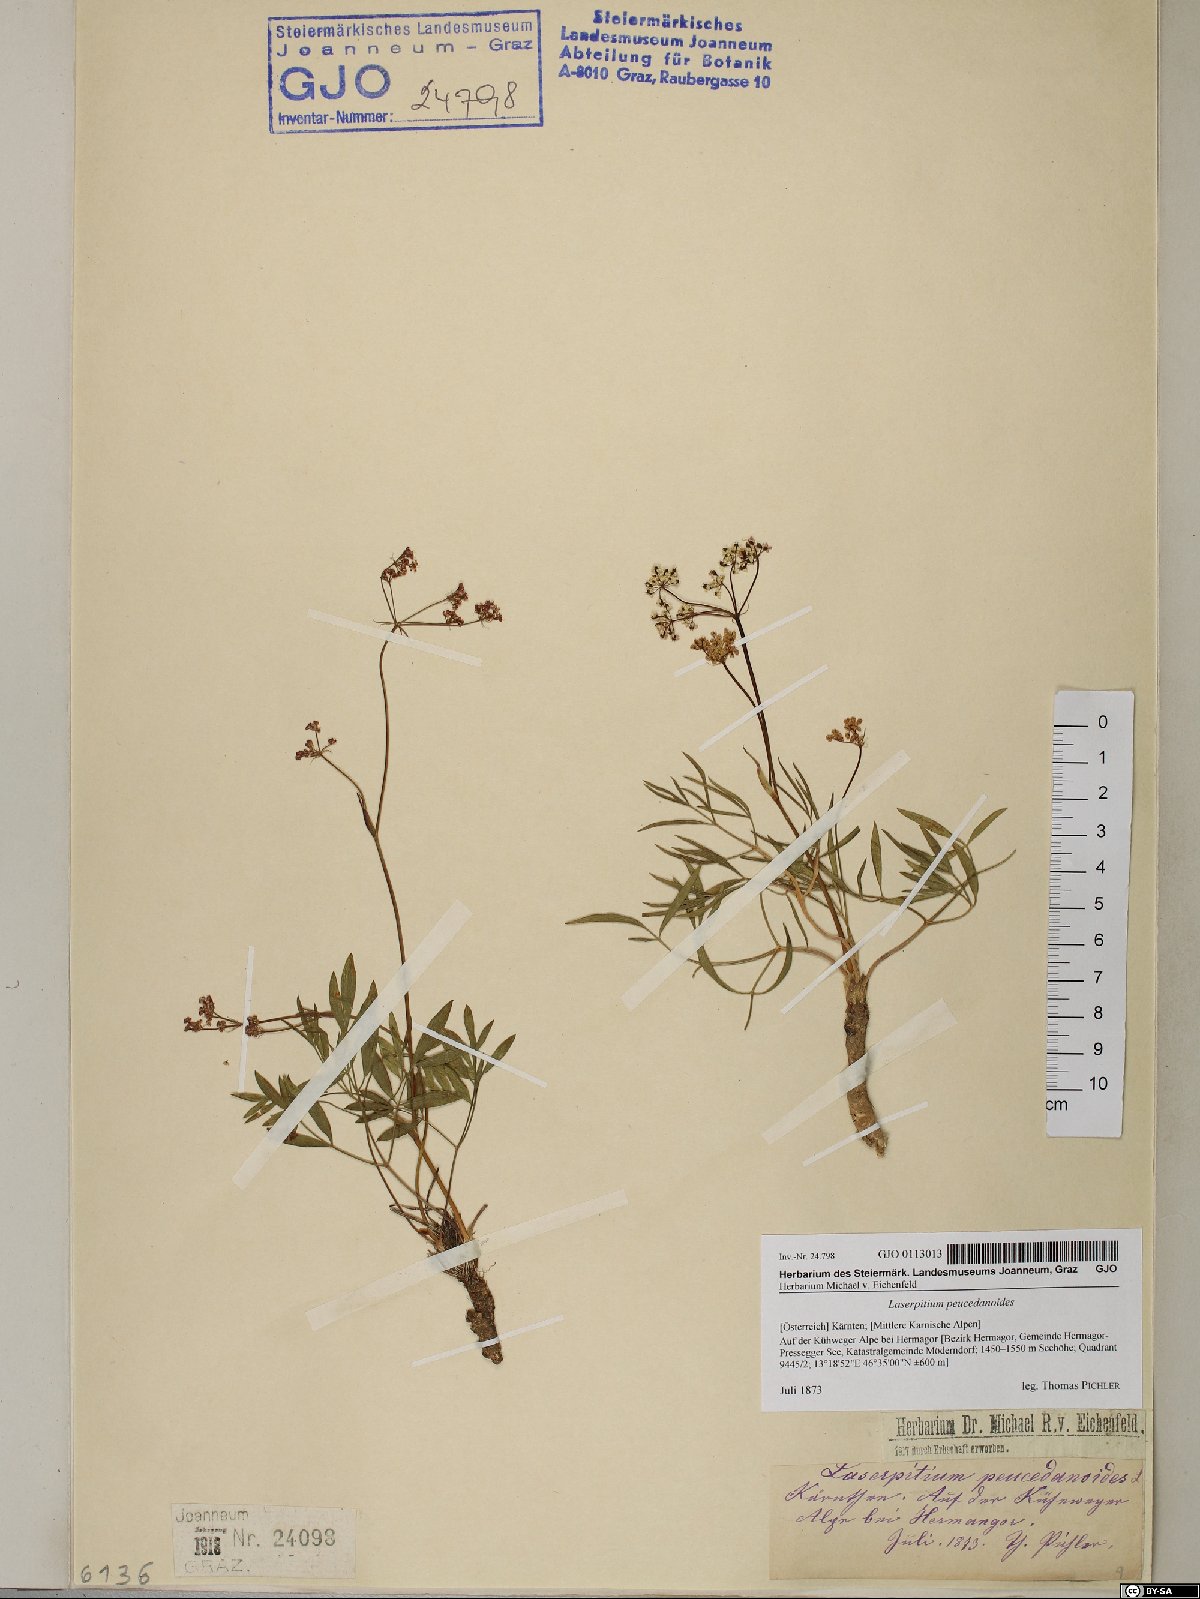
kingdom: Plantae
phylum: Tracheophyta
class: Magnoliopsida
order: Apiales
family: Apiaceae
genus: Laserpitium
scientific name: Laserpitium peucedanoides
